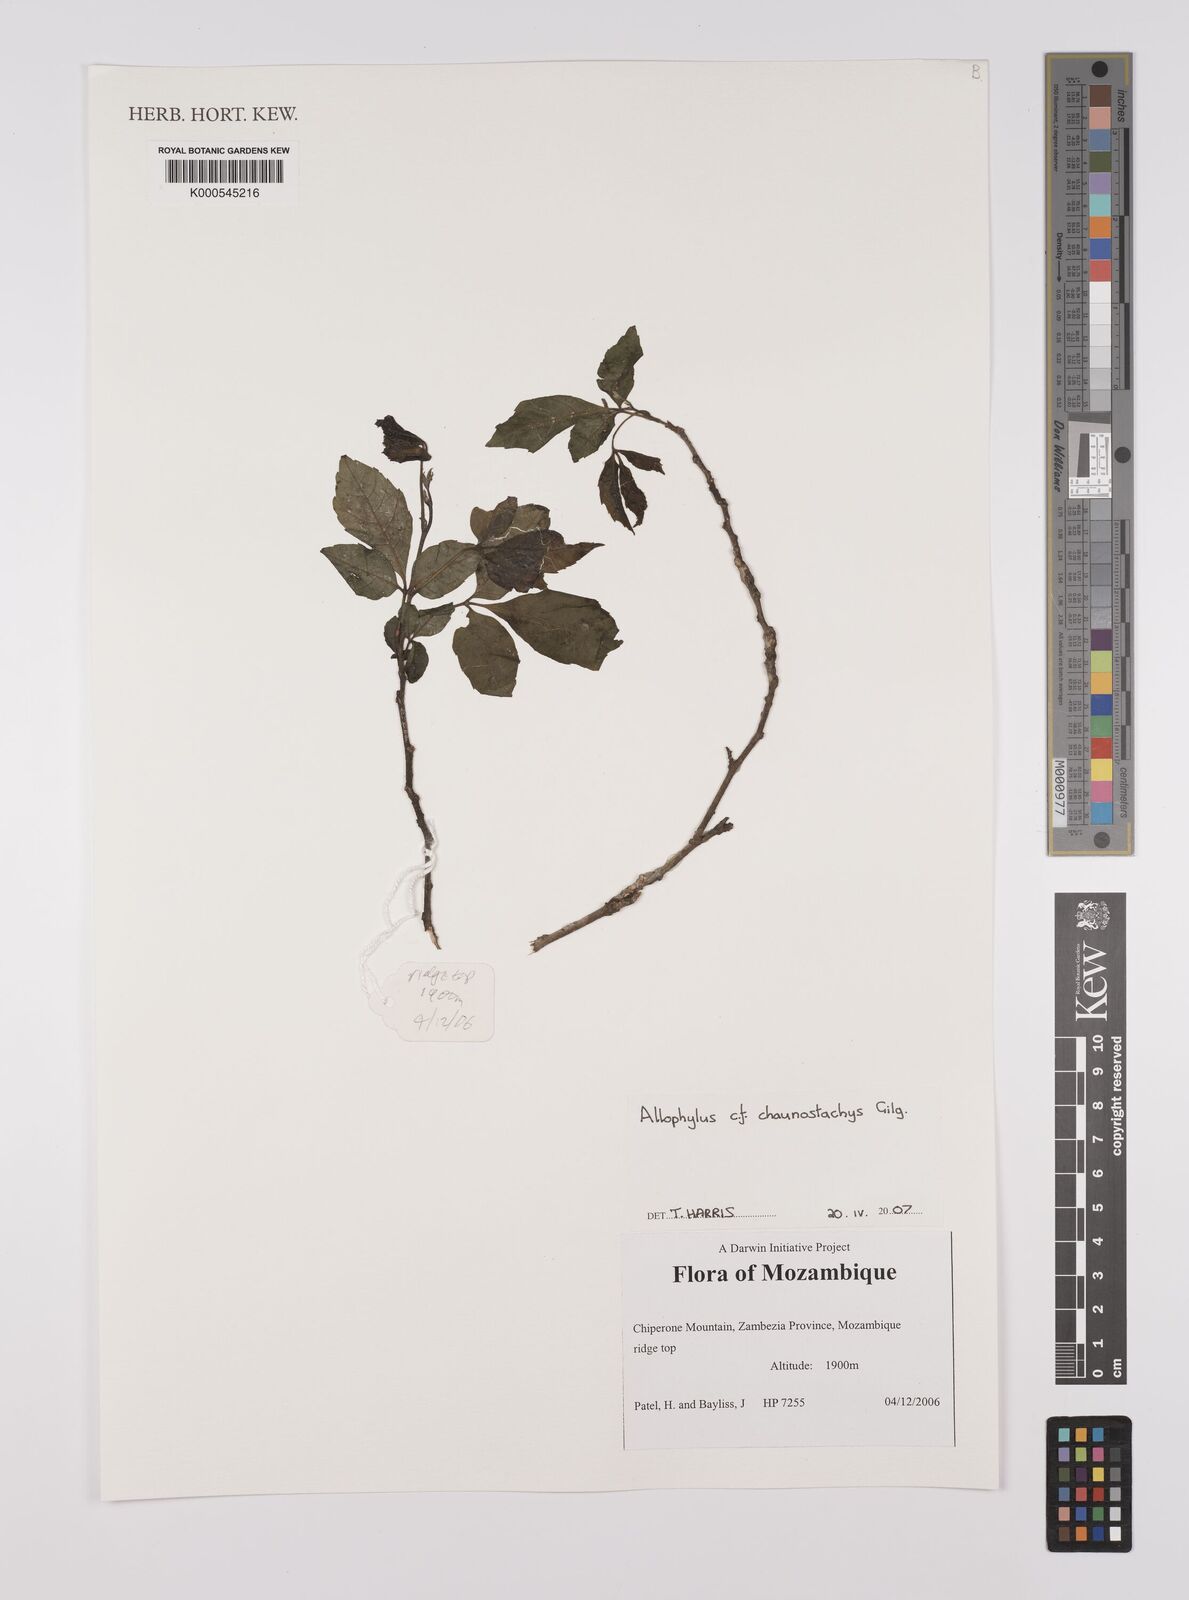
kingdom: Plantae
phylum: Tracheophyta
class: Magnoliopsida
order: Sapindales
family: Sapindaceae
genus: Allophylus
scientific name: Allophylus chaunostachys
